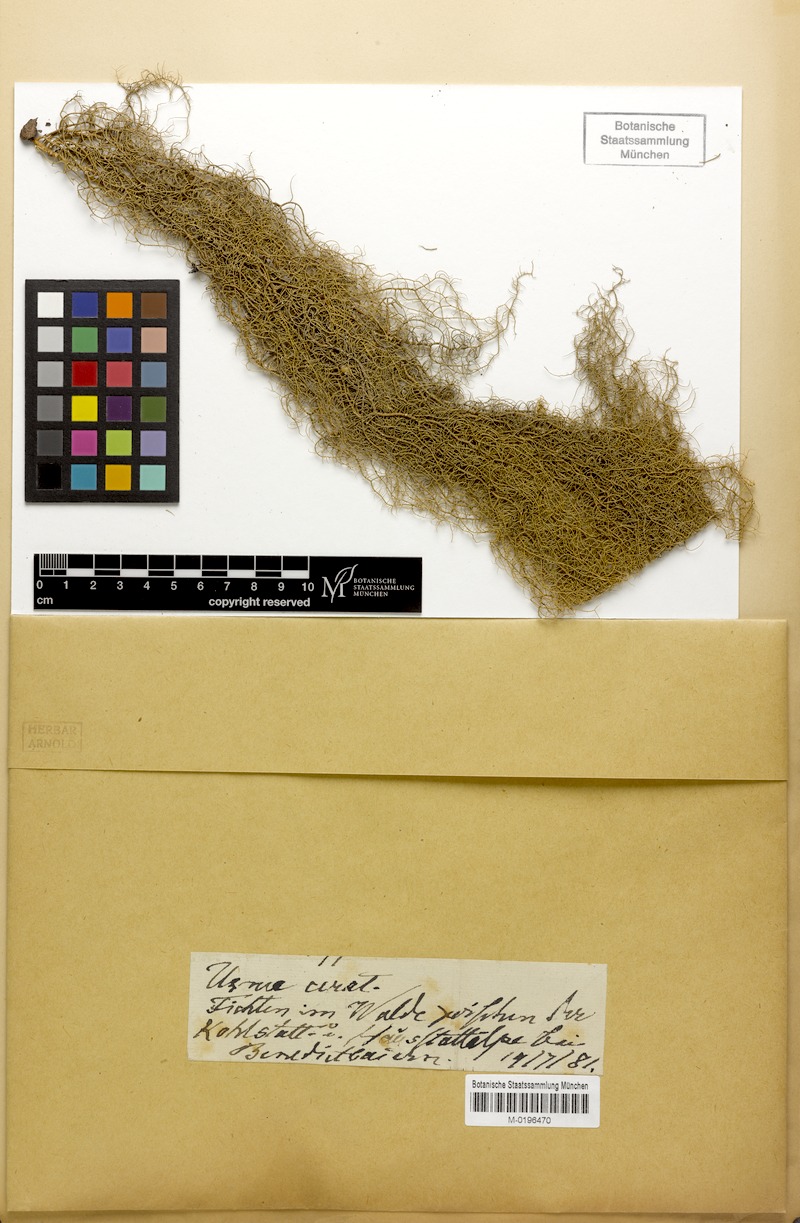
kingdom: Fungi
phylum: Ascomycota
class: Lecanoromycetes
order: Lecanorales
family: Parmeliaceae
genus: Usnea
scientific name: Usnea ceratina
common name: Warty beard lichen
